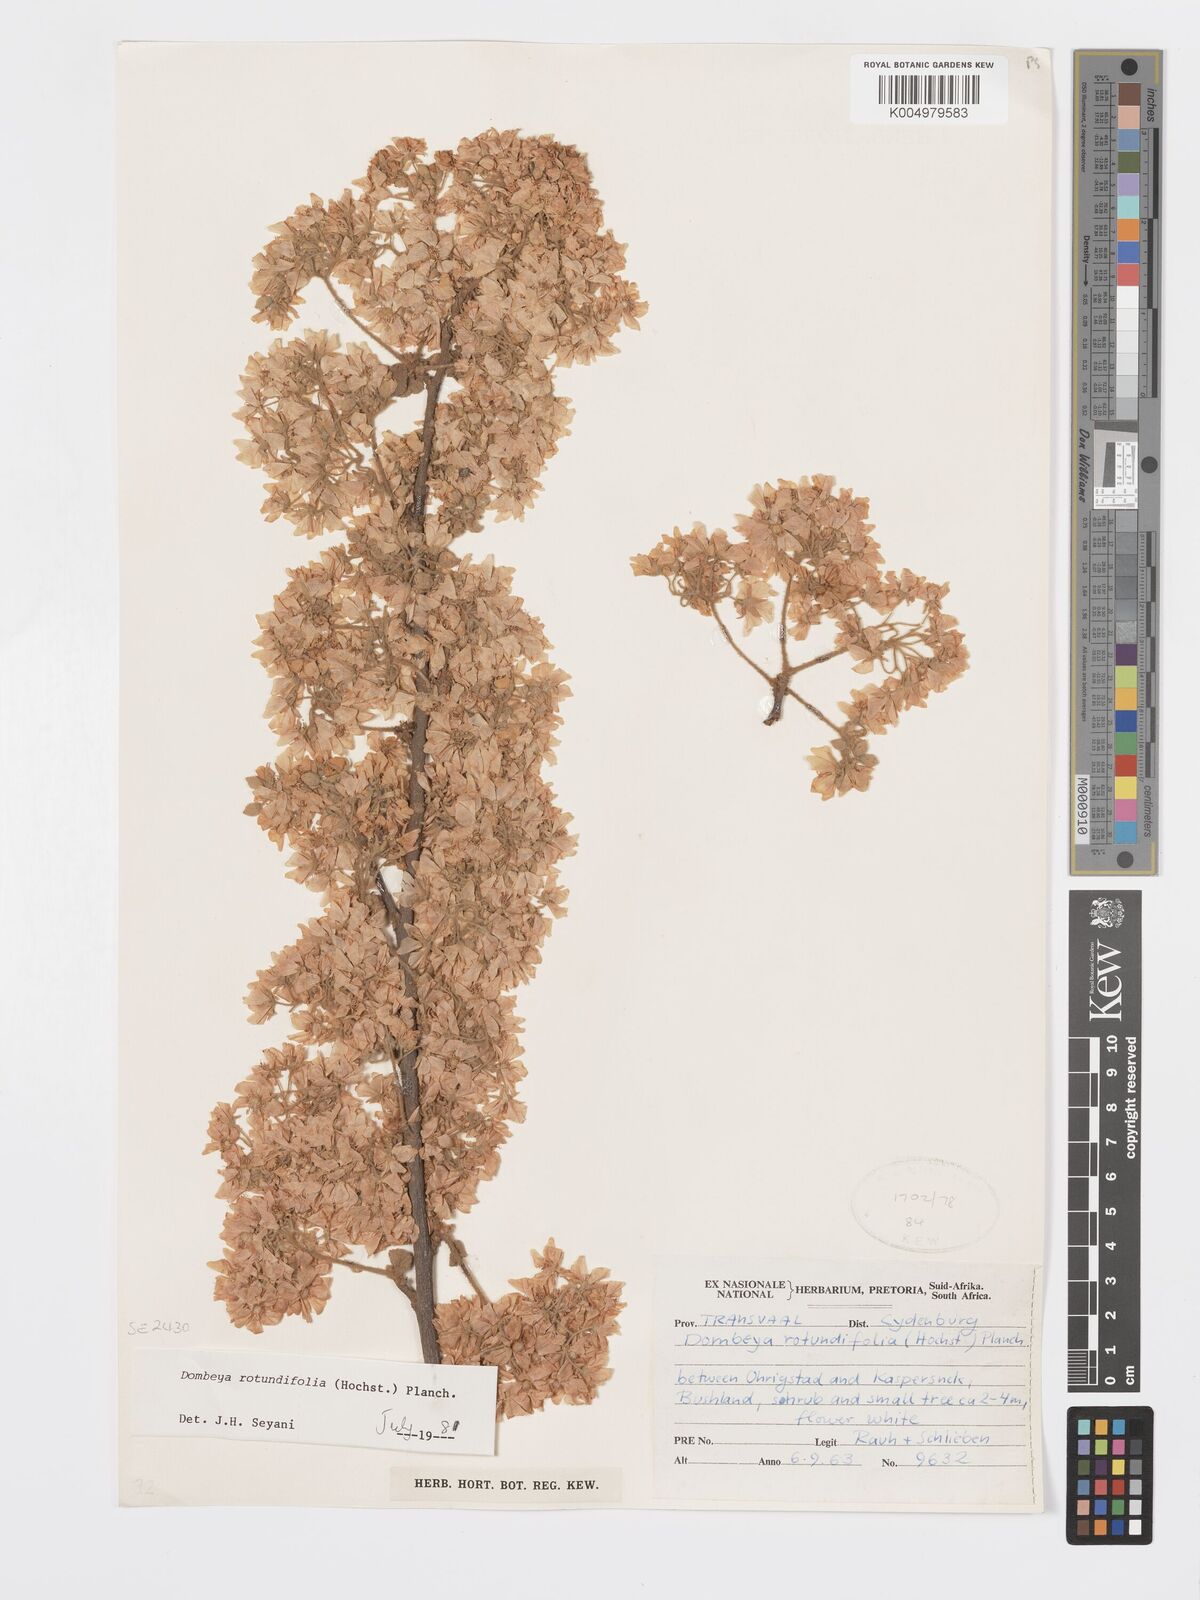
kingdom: Plantae
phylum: Tracheophyta
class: Magnoliopsida
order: Malvales
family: Malvaceae
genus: Dombeya
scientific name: Dombeya rotundifolia
